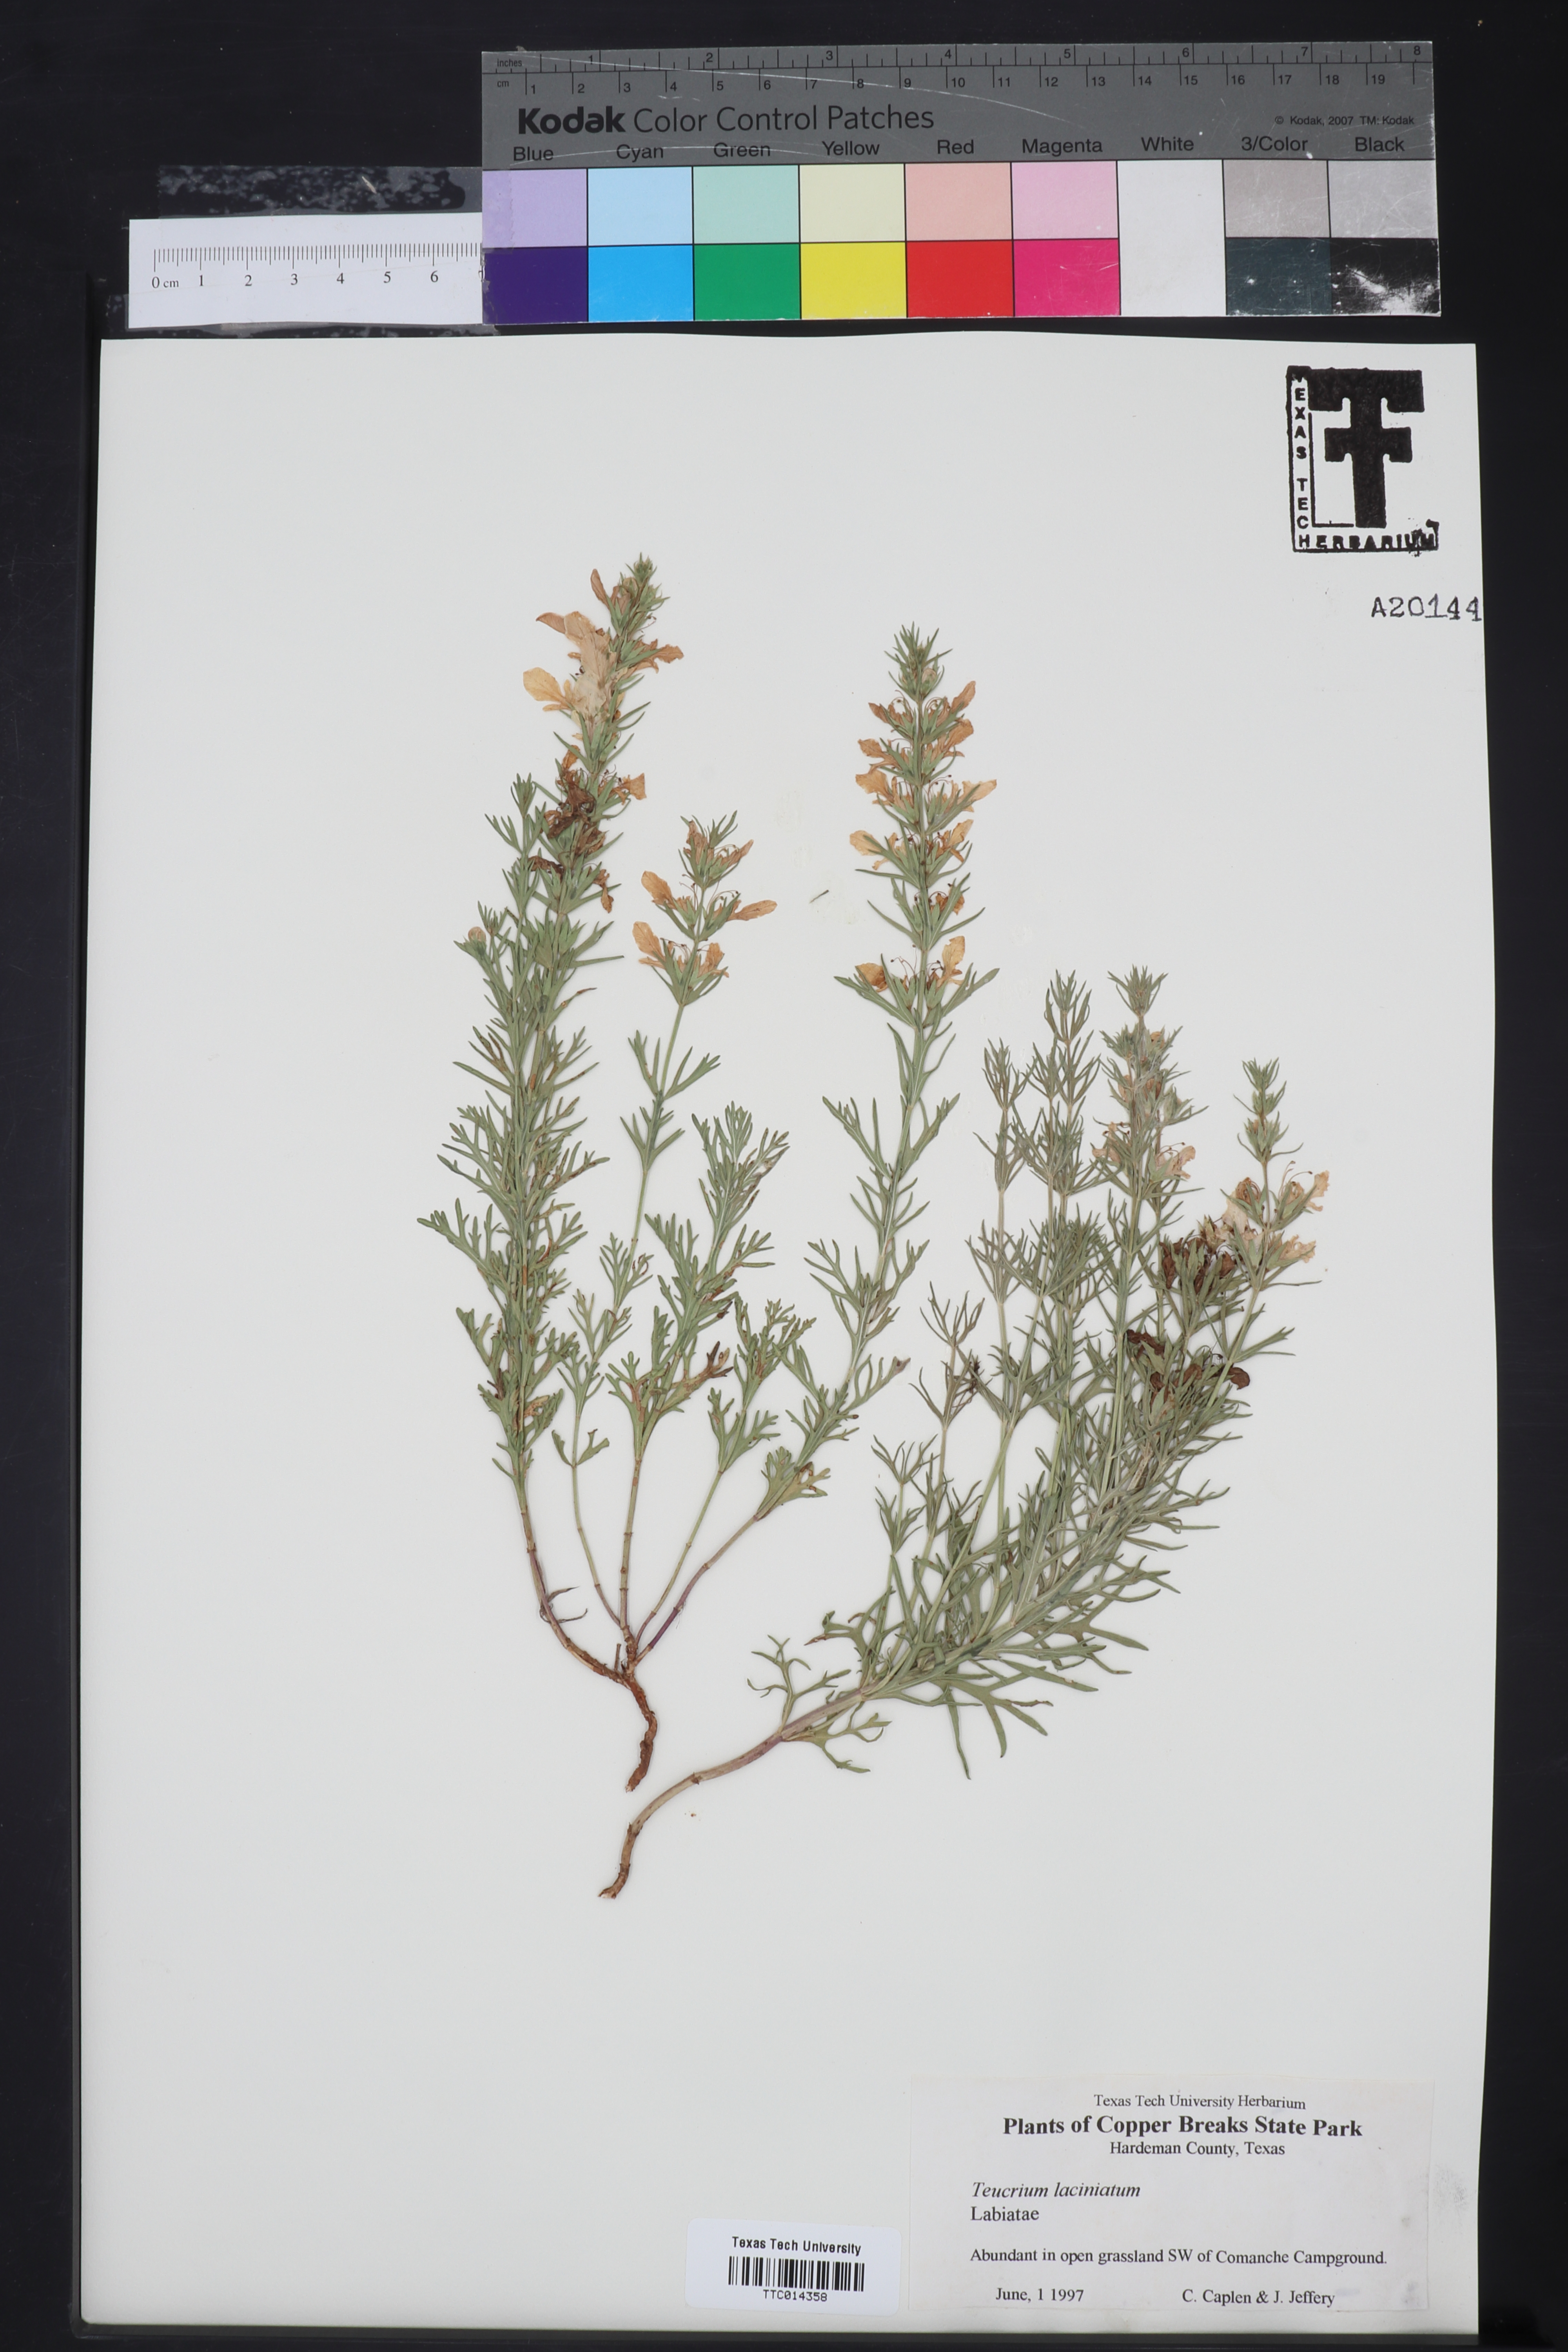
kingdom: Plantae
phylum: Tracheophyta
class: Magnoliopsida
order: Lamiales
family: Lamiaceae
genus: Teucrium
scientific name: Teucrium laciniatum
